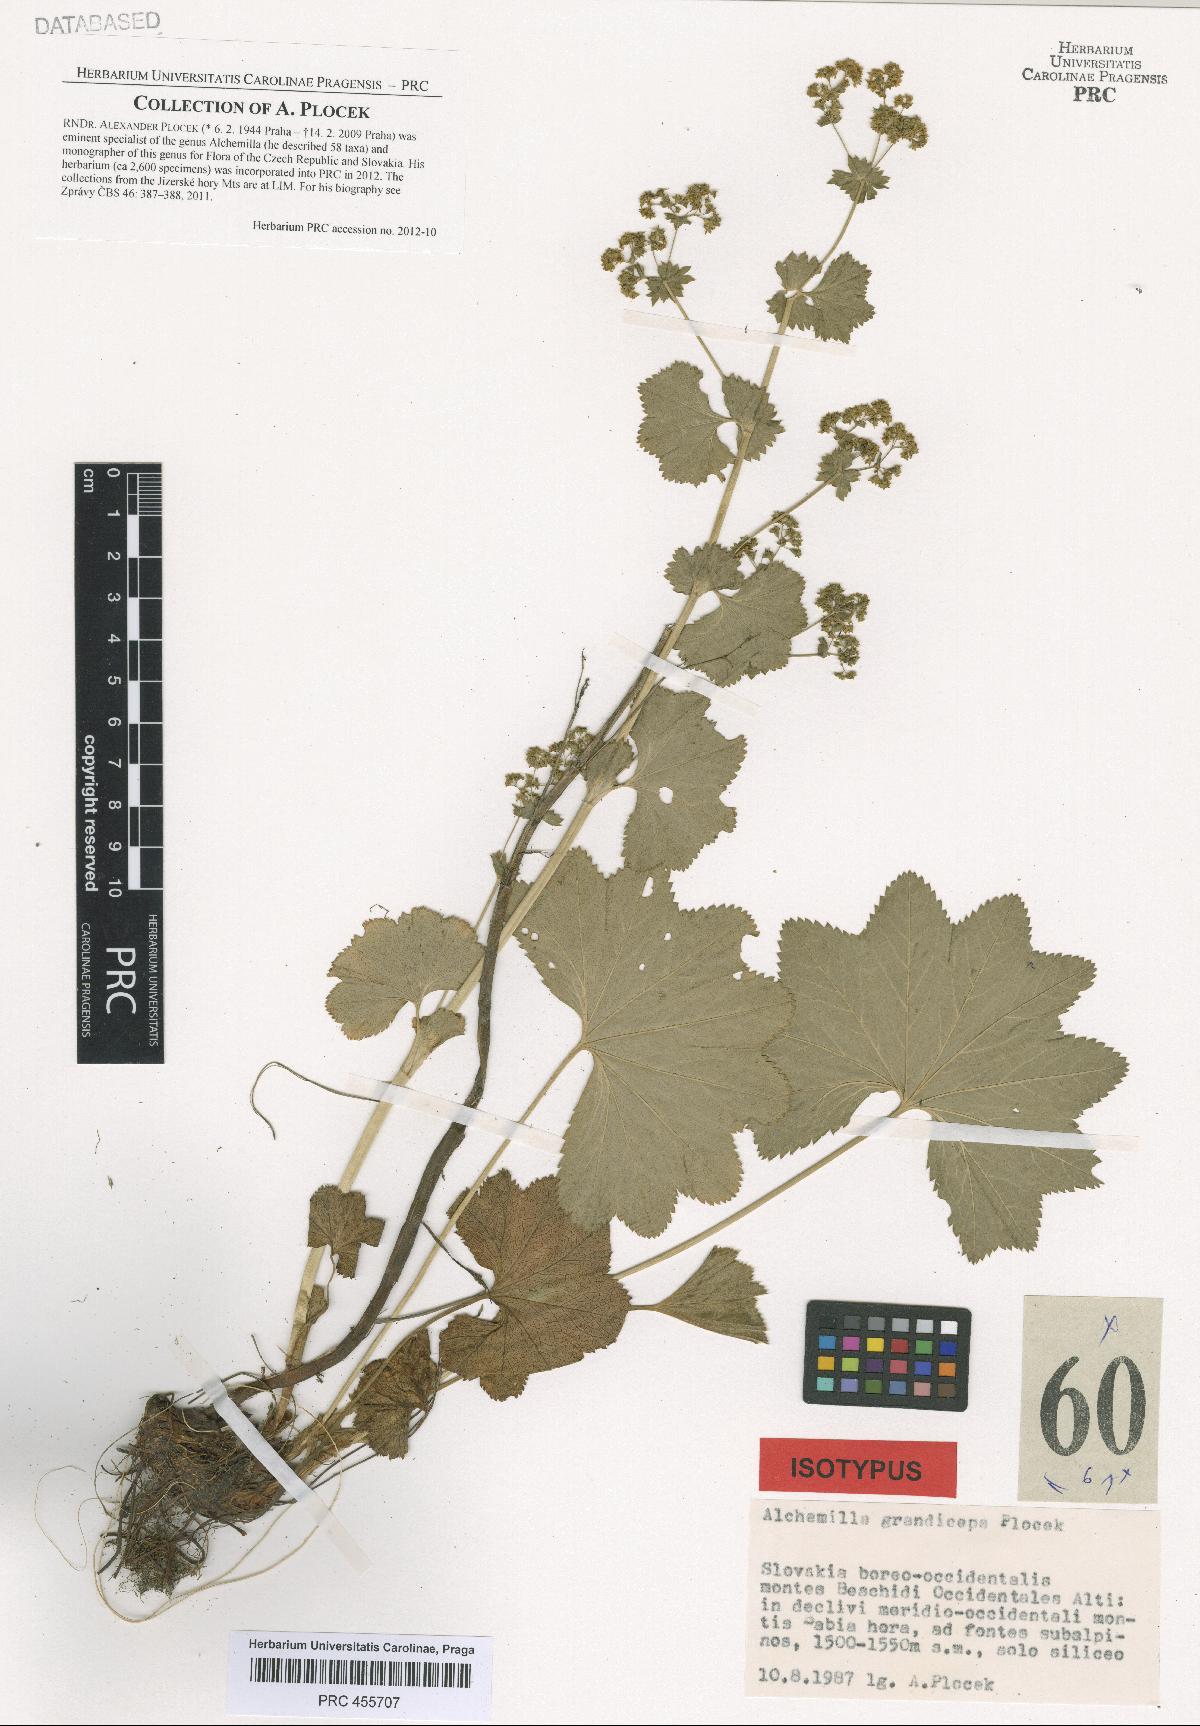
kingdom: Plantae
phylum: Tracheophyta
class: Magnoliopsida
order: Rosales
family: Rosaceae
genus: Alchemilla
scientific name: Alchemilla grandiceps
